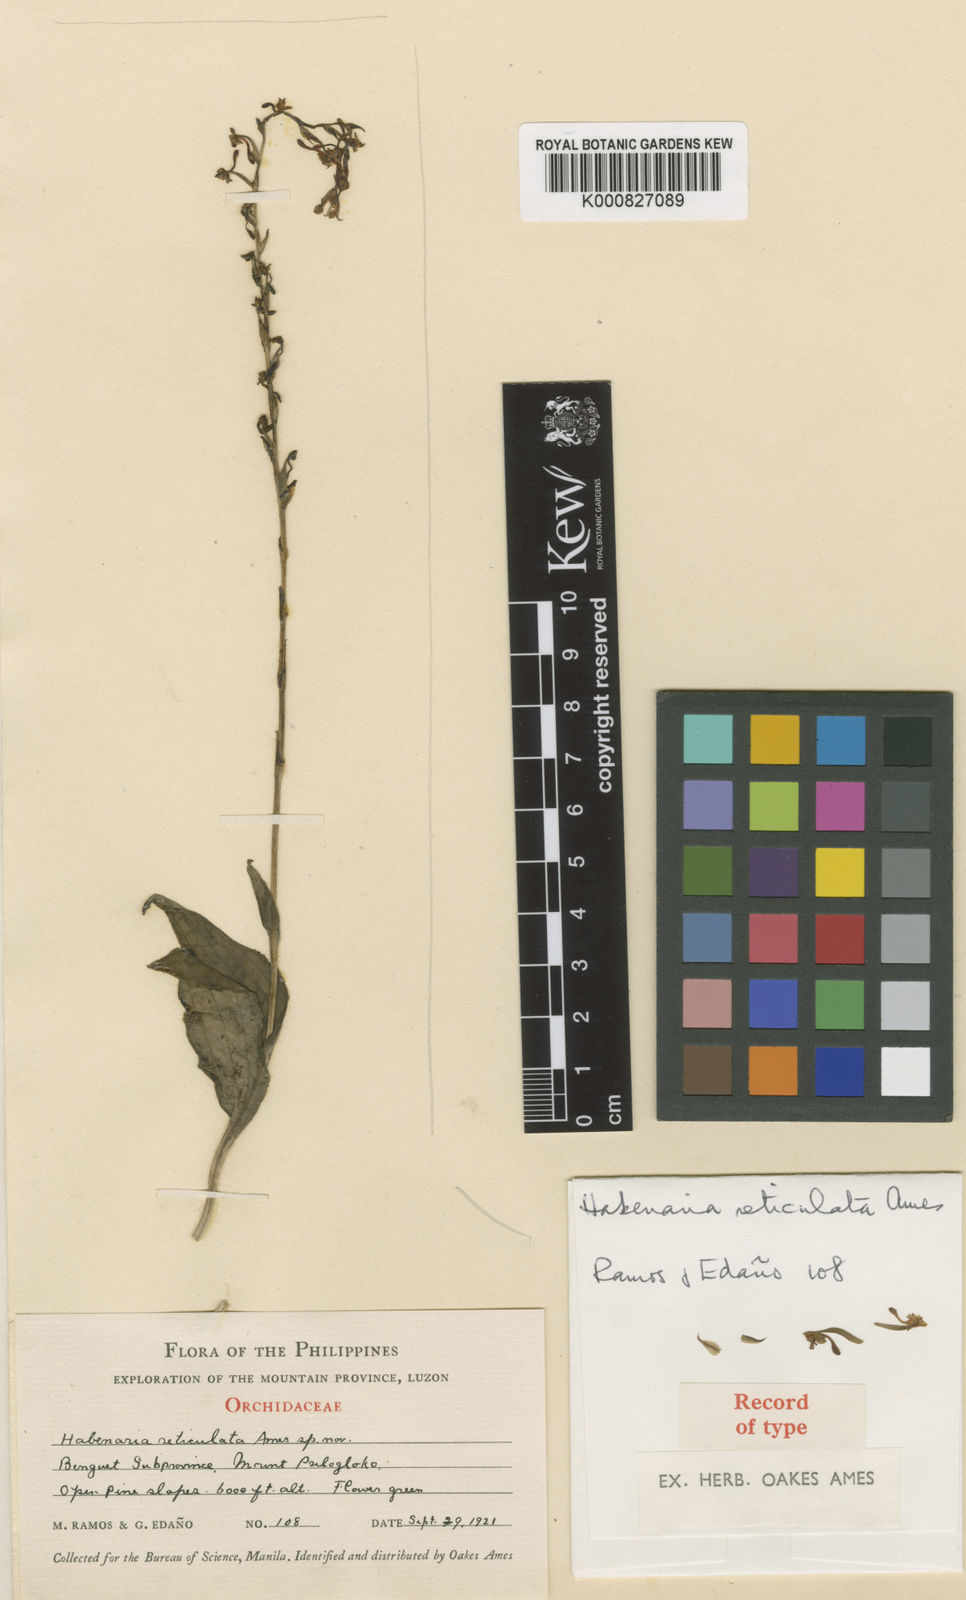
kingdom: Plantae
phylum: Tracheophyta
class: Liliopsida
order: Asparagales
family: Orchidaceae
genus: Peristylus
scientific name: Peristylus reticulatus
